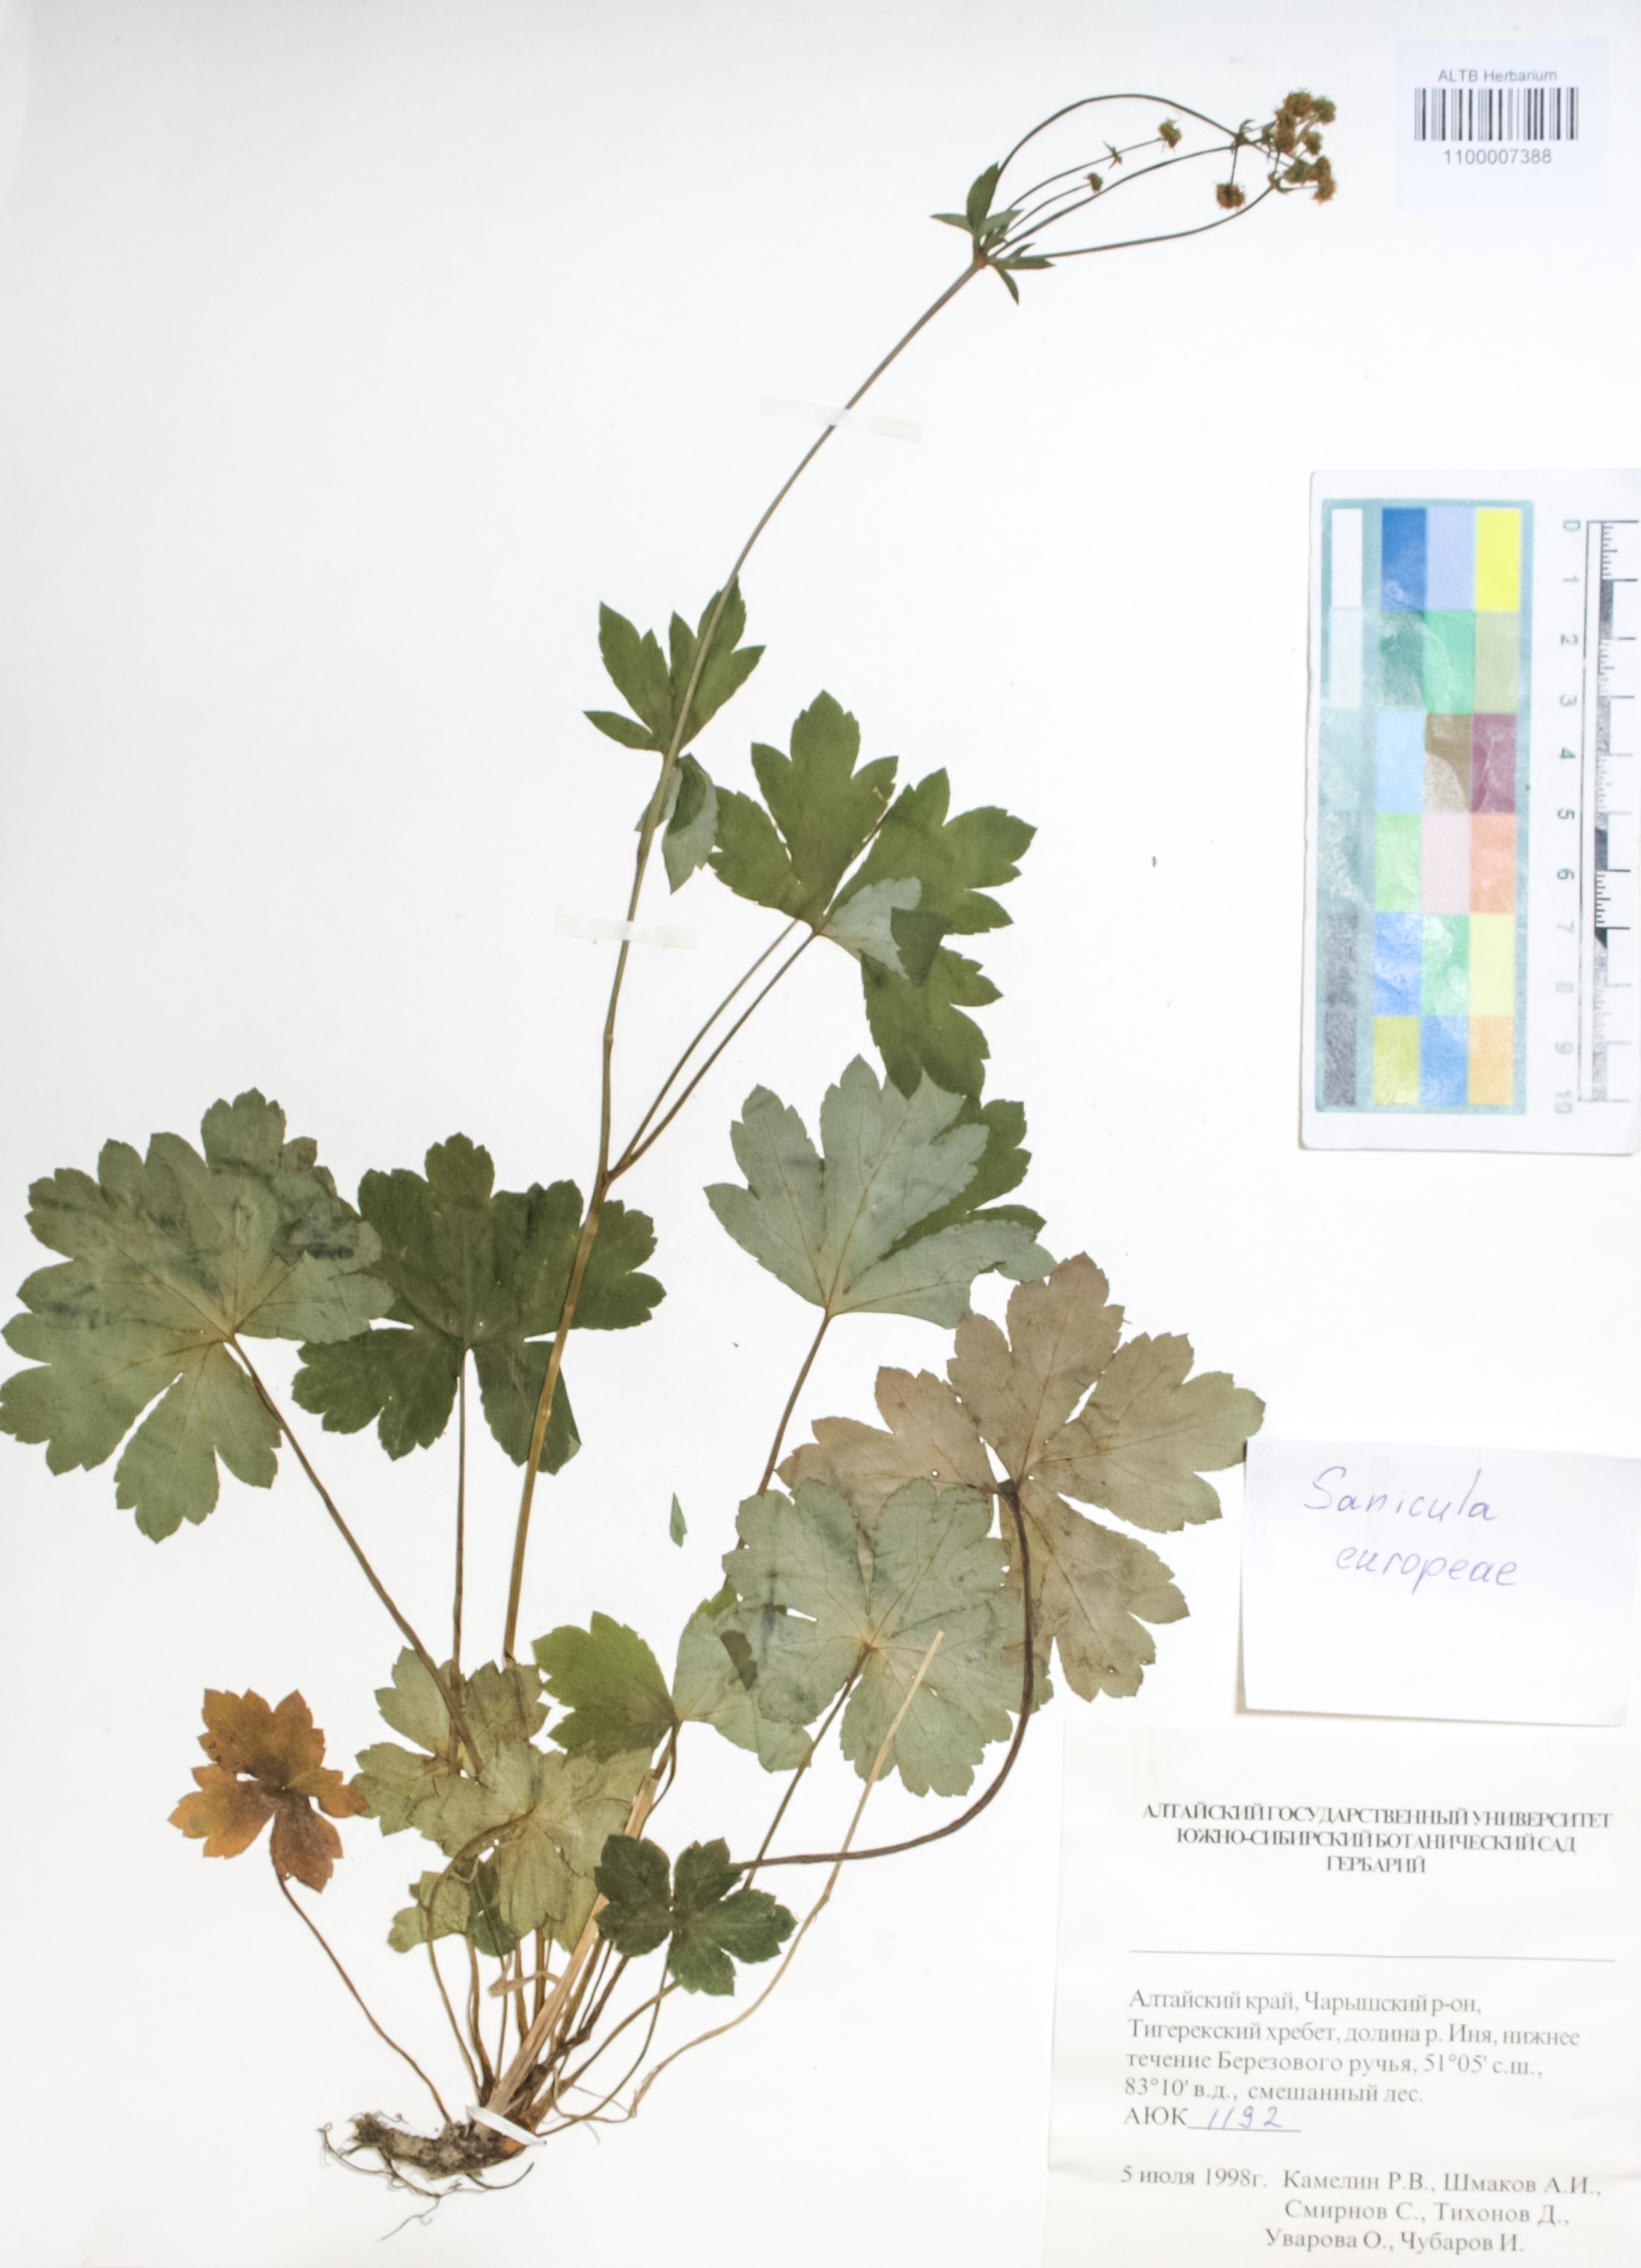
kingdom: Plantae
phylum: Tracheophyta
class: Magnoliopsida
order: Apiales
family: Apiaceae
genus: Sanicula
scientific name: Sanicula europaea
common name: Sanicle
